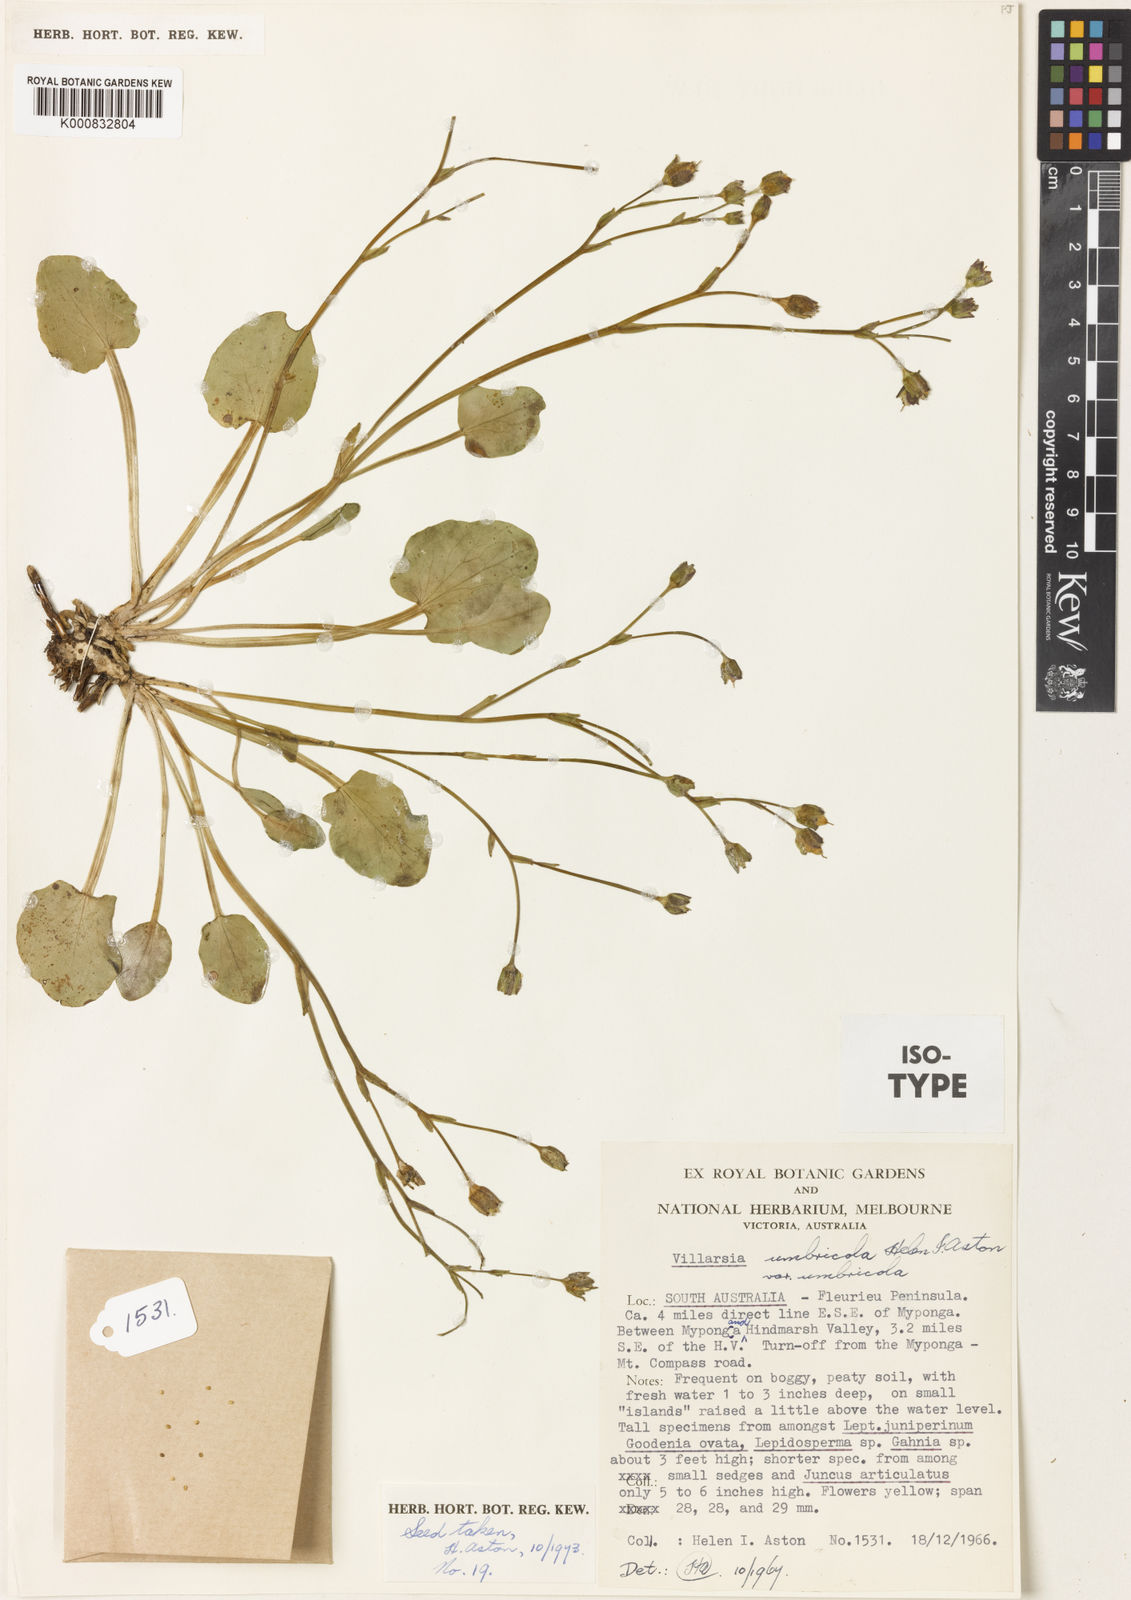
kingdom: Plantae
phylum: Tracheophyta
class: Magnoliopsida
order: Asterales
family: Menyanthaceae
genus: Ornduffia
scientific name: Ornduffia umbricola
